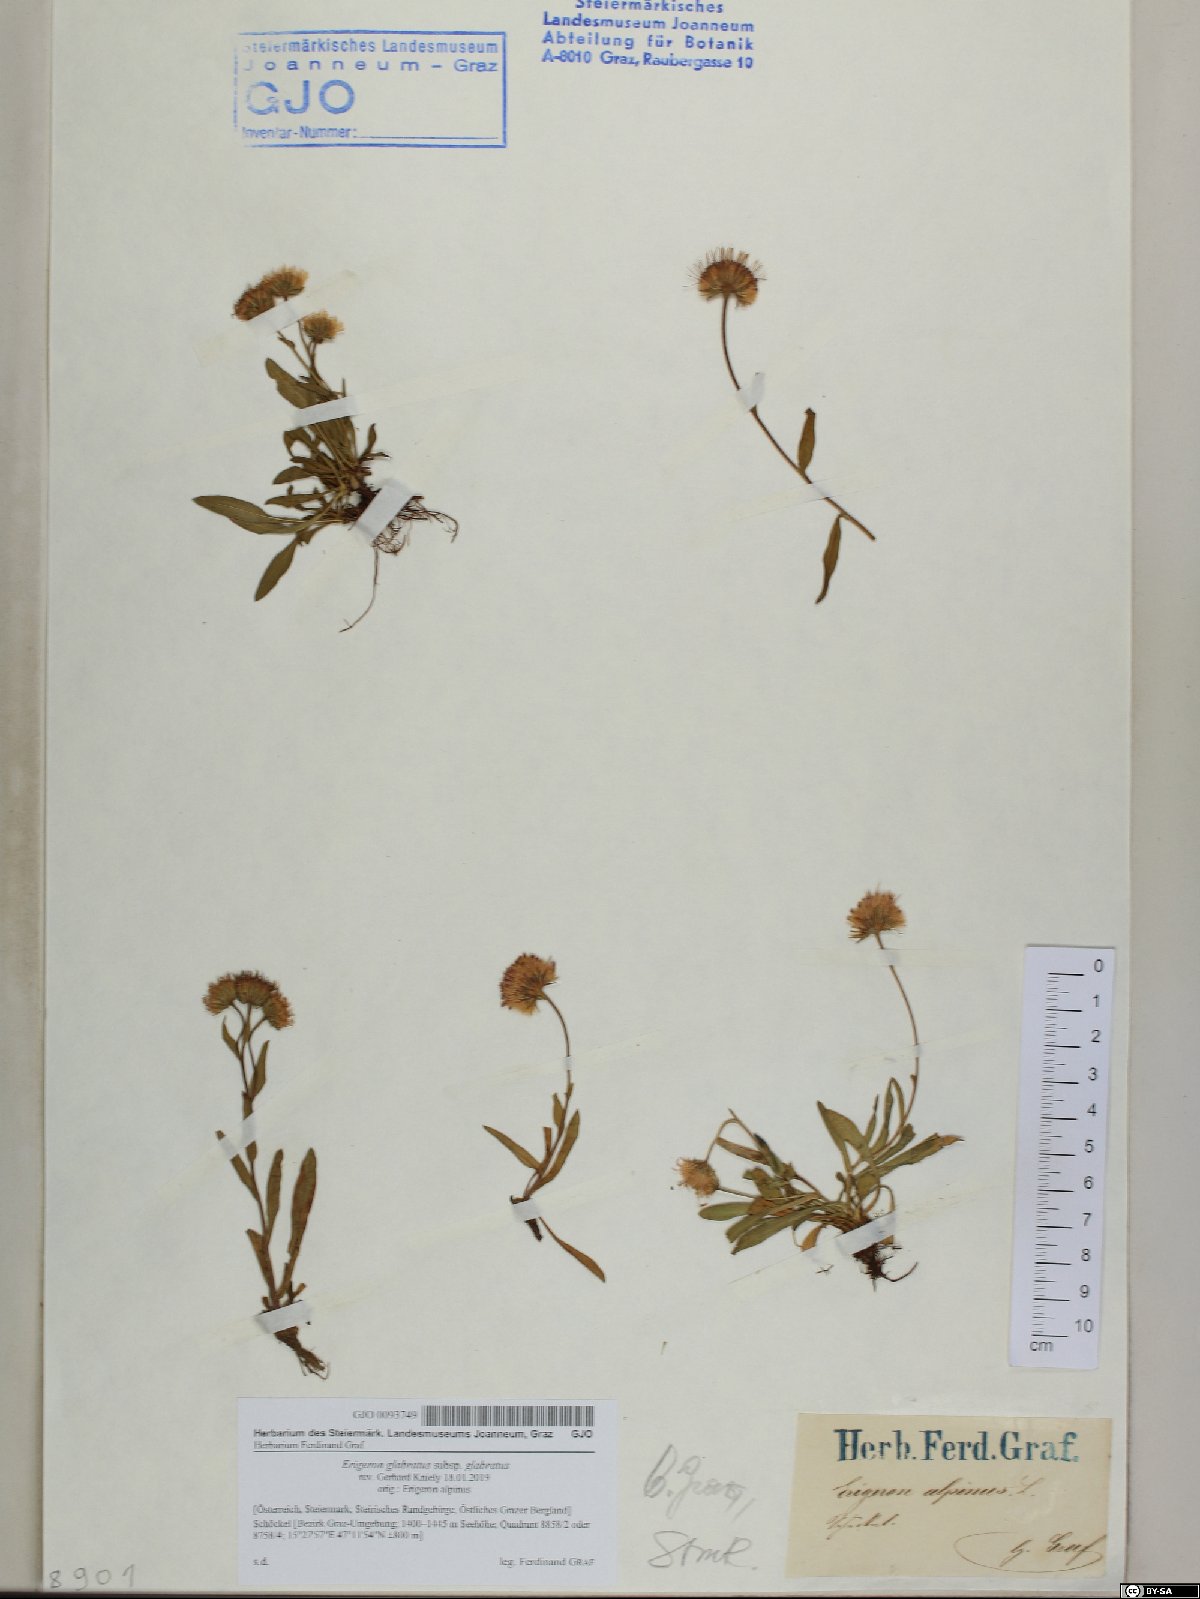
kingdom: Plantae
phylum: Tracheophyta
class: Magnoliopsida
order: Asterales
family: Asteraceae
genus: Erigeron
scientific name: Erigeron glabratus
